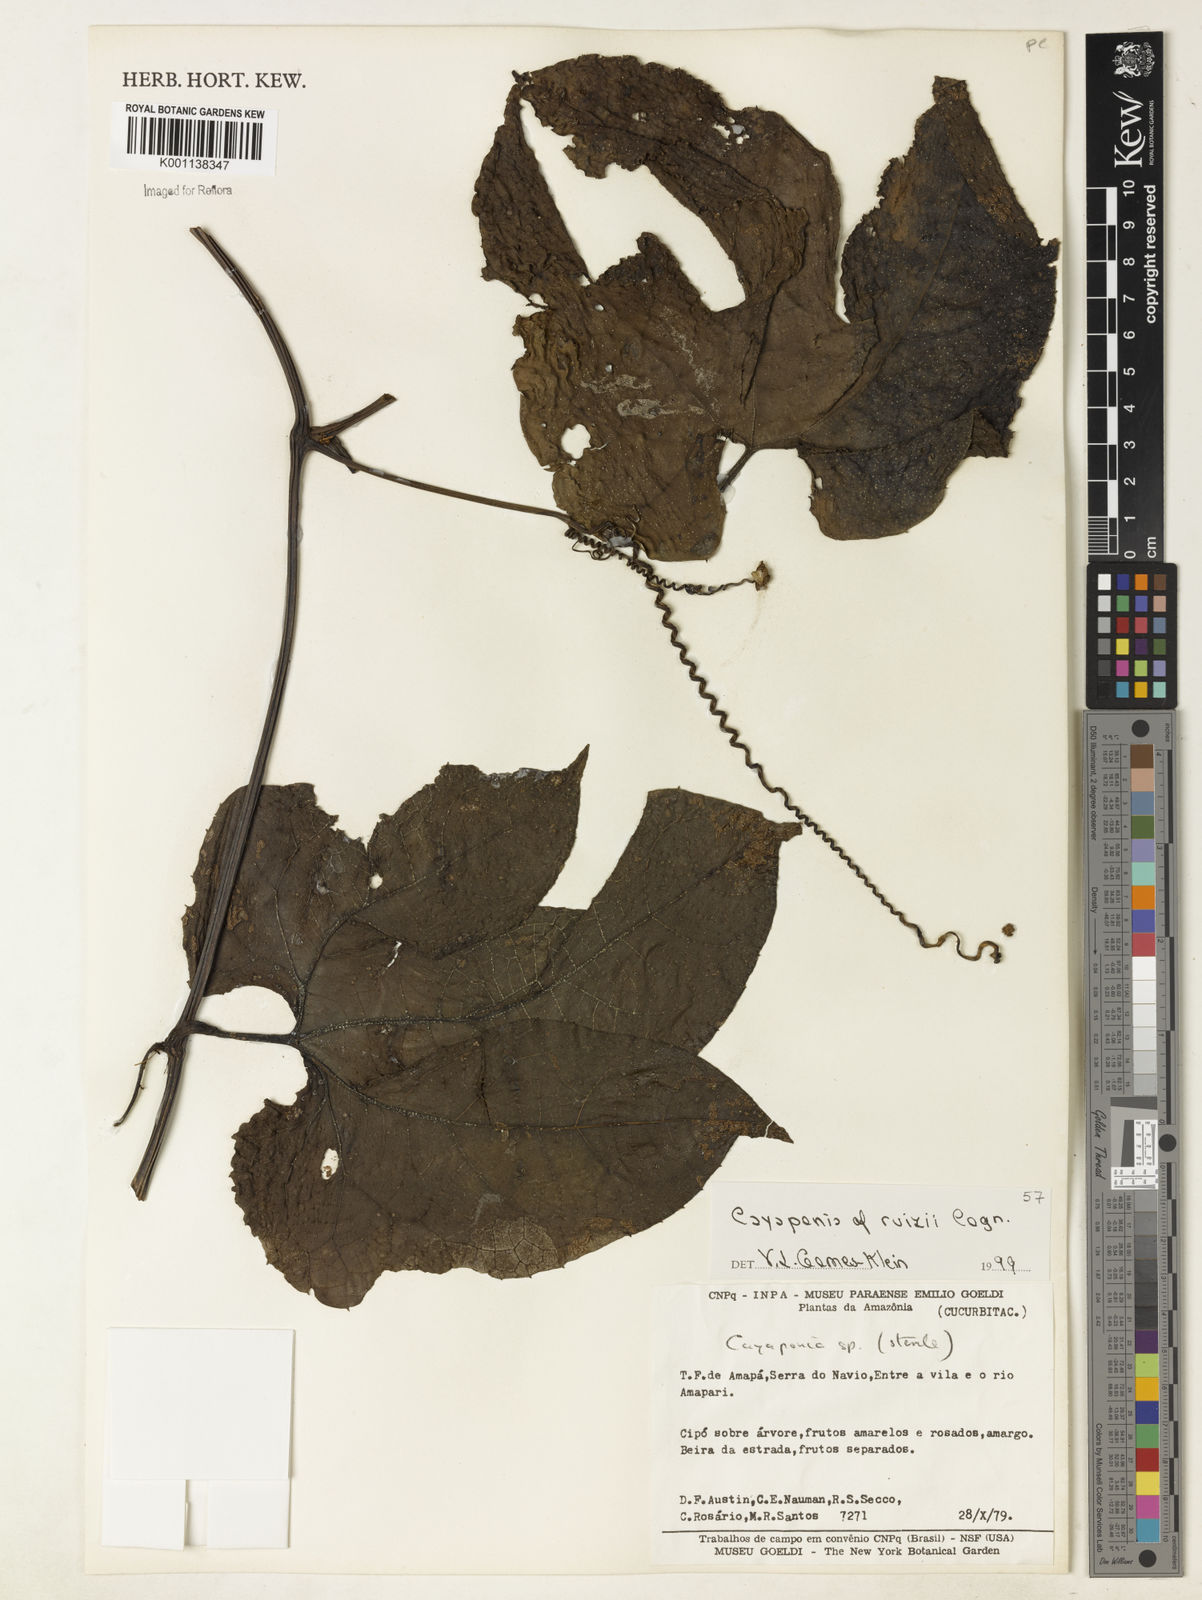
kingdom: Plantae
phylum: Tracheophyta
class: Magnoliopsida
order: Cucurbitales
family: Cucurbitaceae
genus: Cayaponia
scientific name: Cayaponia ruizii
